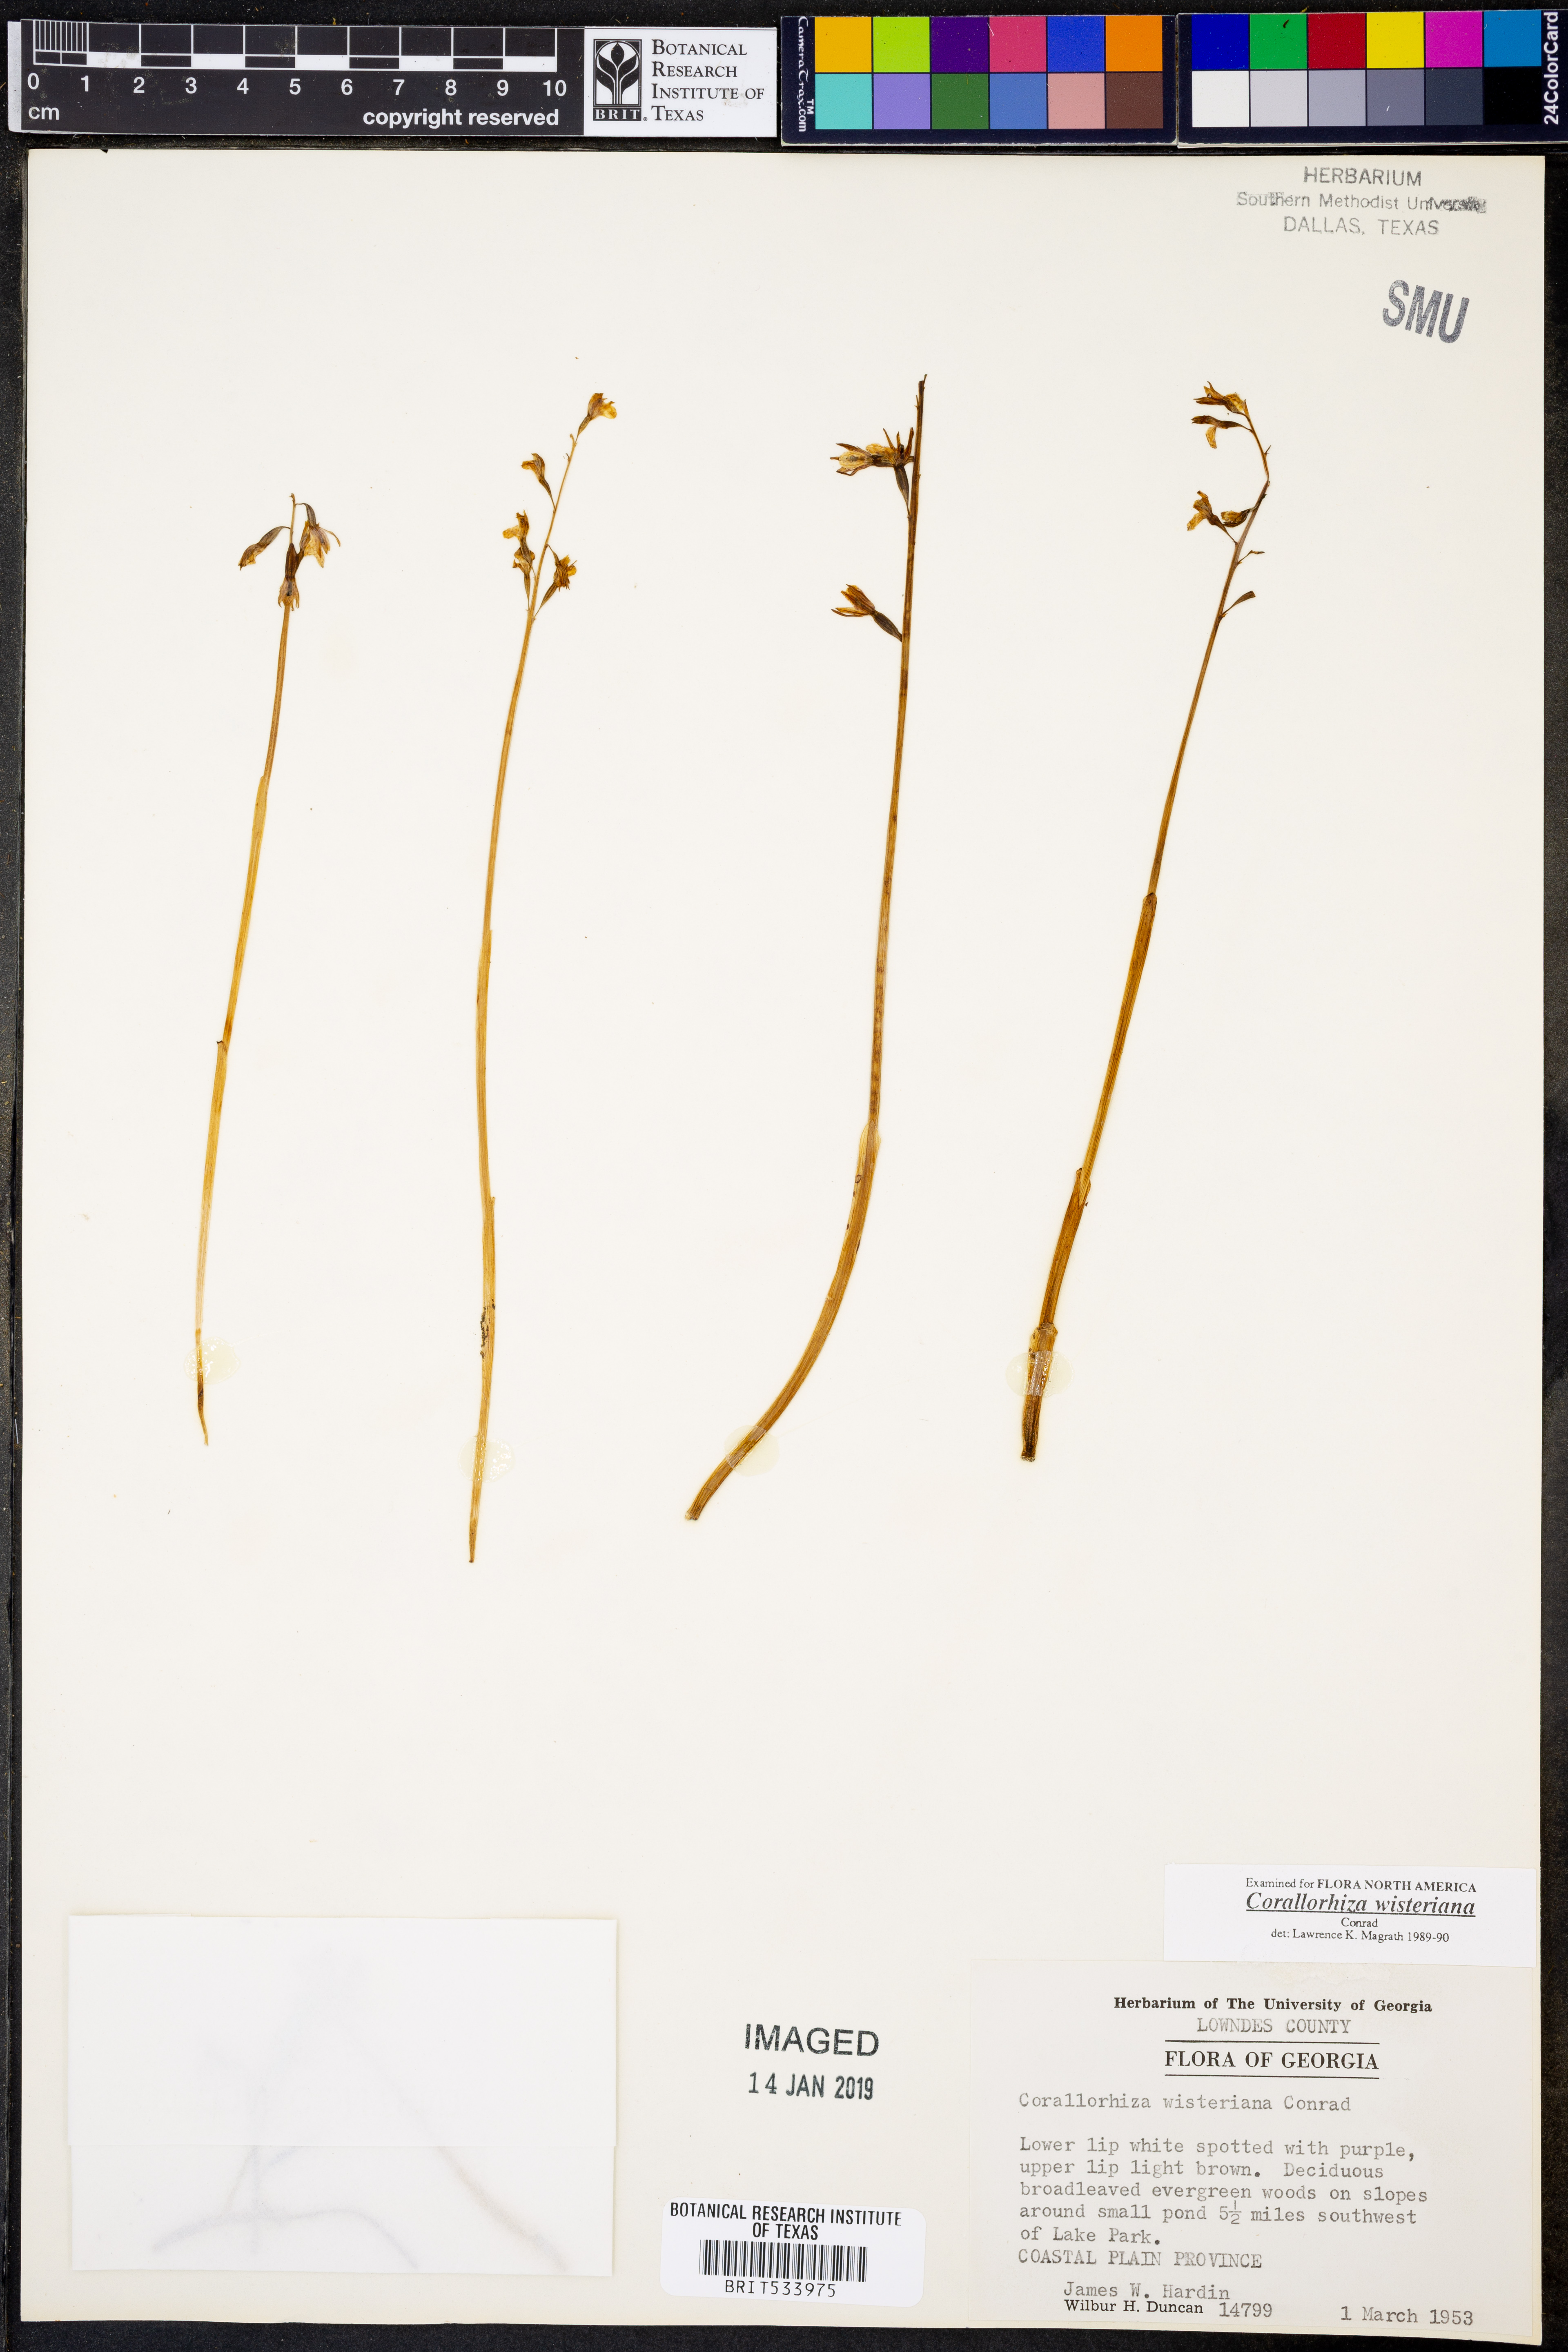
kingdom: Plantae
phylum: Tracheophyta
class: Liliopsida
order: Asparagales
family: Orchidaceae
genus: Corallorhiza
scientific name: Corallorhiza wisteriana
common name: Spring coralroot
